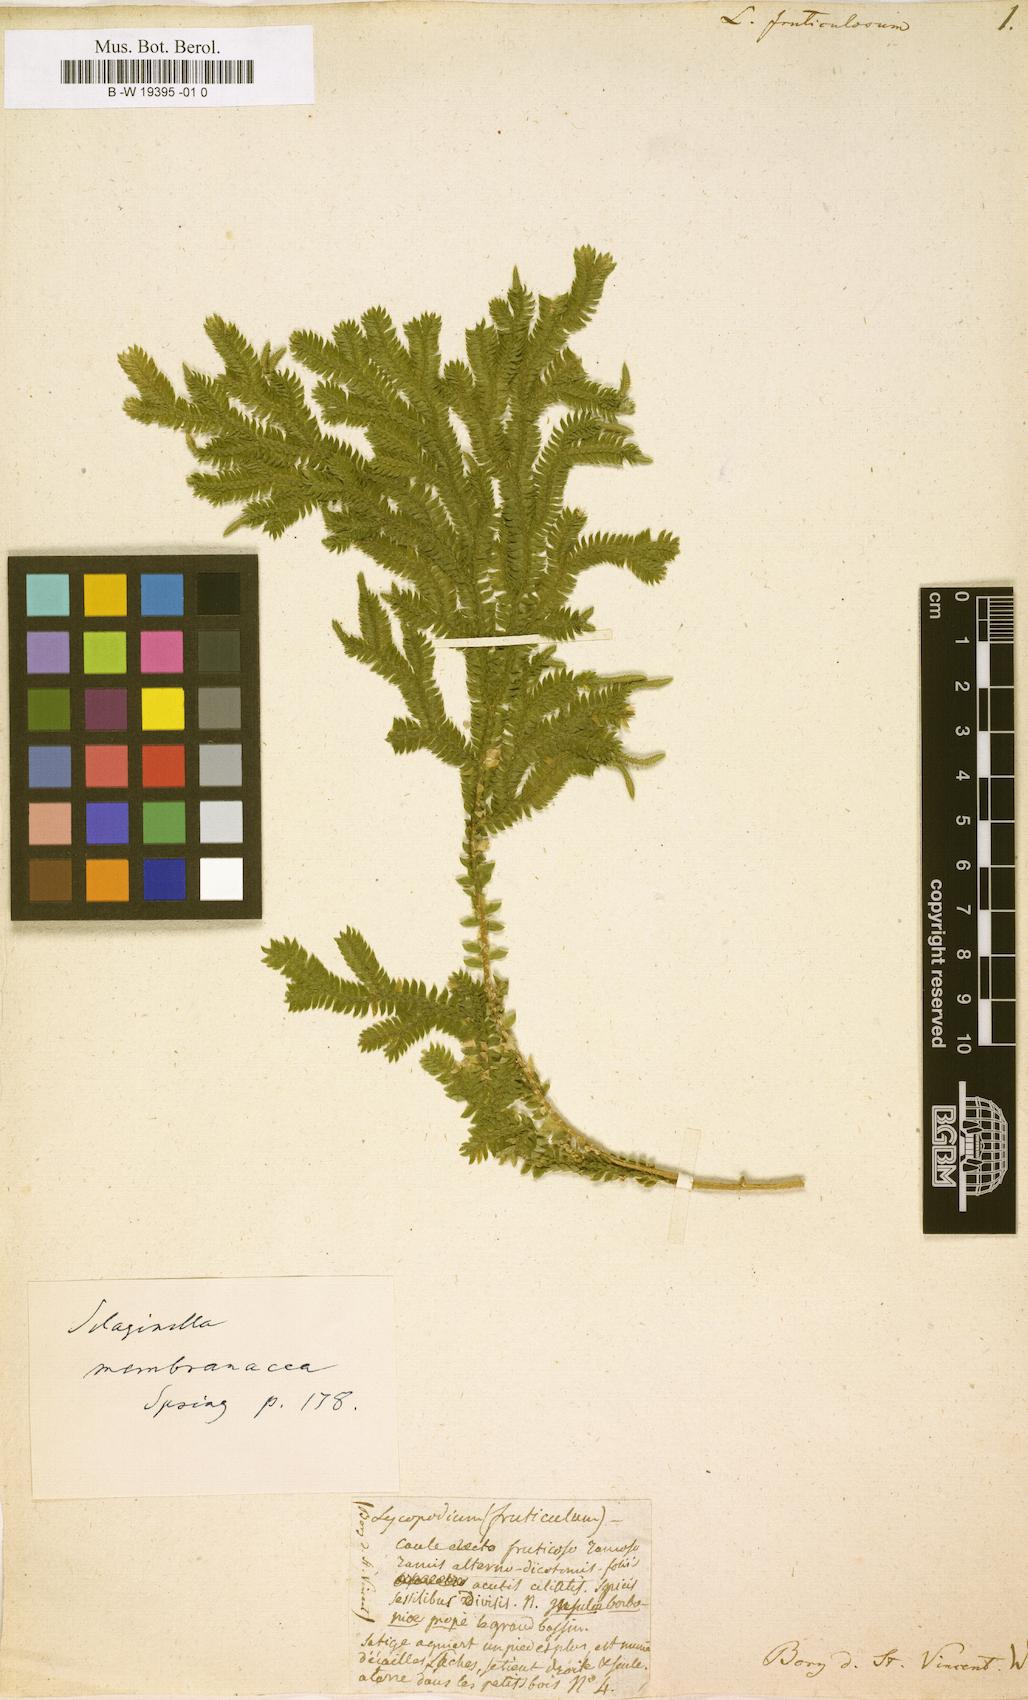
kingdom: Plantae
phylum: Tracheophyta
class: Lycopodiopsida
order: Lycopodiales
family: Lycopodiaceae
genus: Lycopodium
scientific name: Lycopodium fruticulosum
